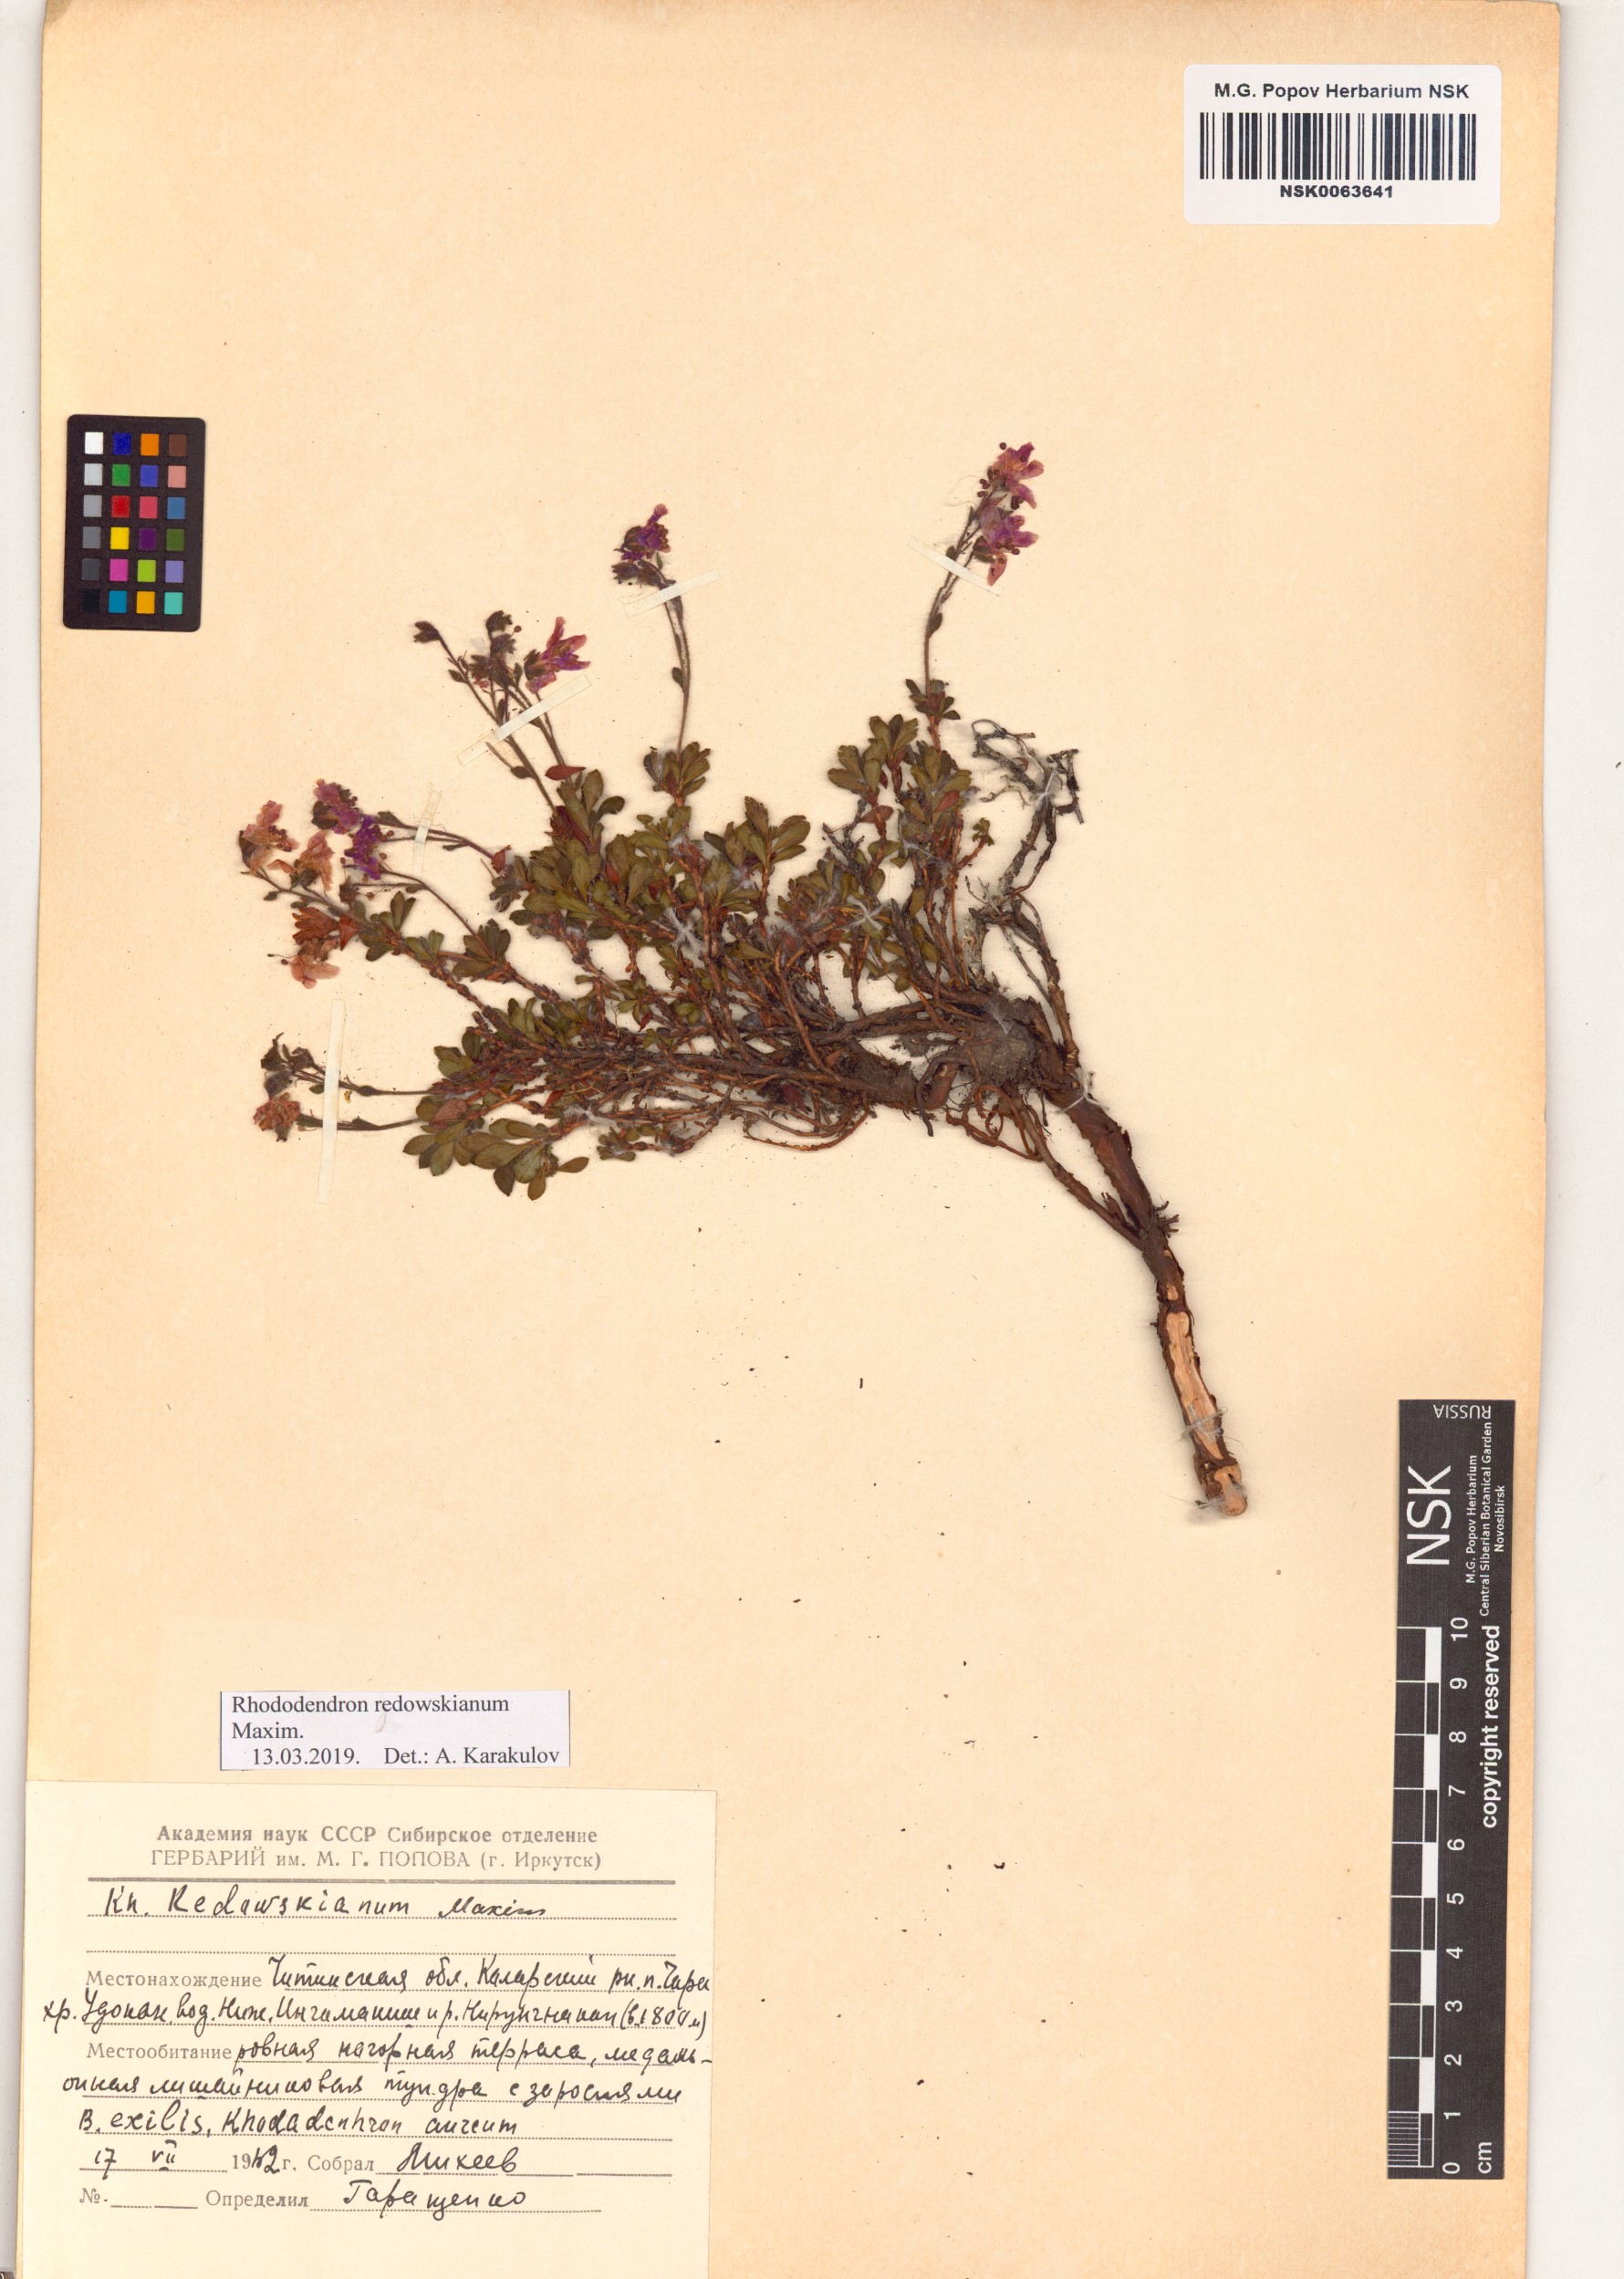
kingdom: Plantae
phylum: Tracheophyta
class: Magnoliopsida
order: Ericales
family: Ericaceae
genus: Rhododendron
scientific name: Rhododendron redowskianum
